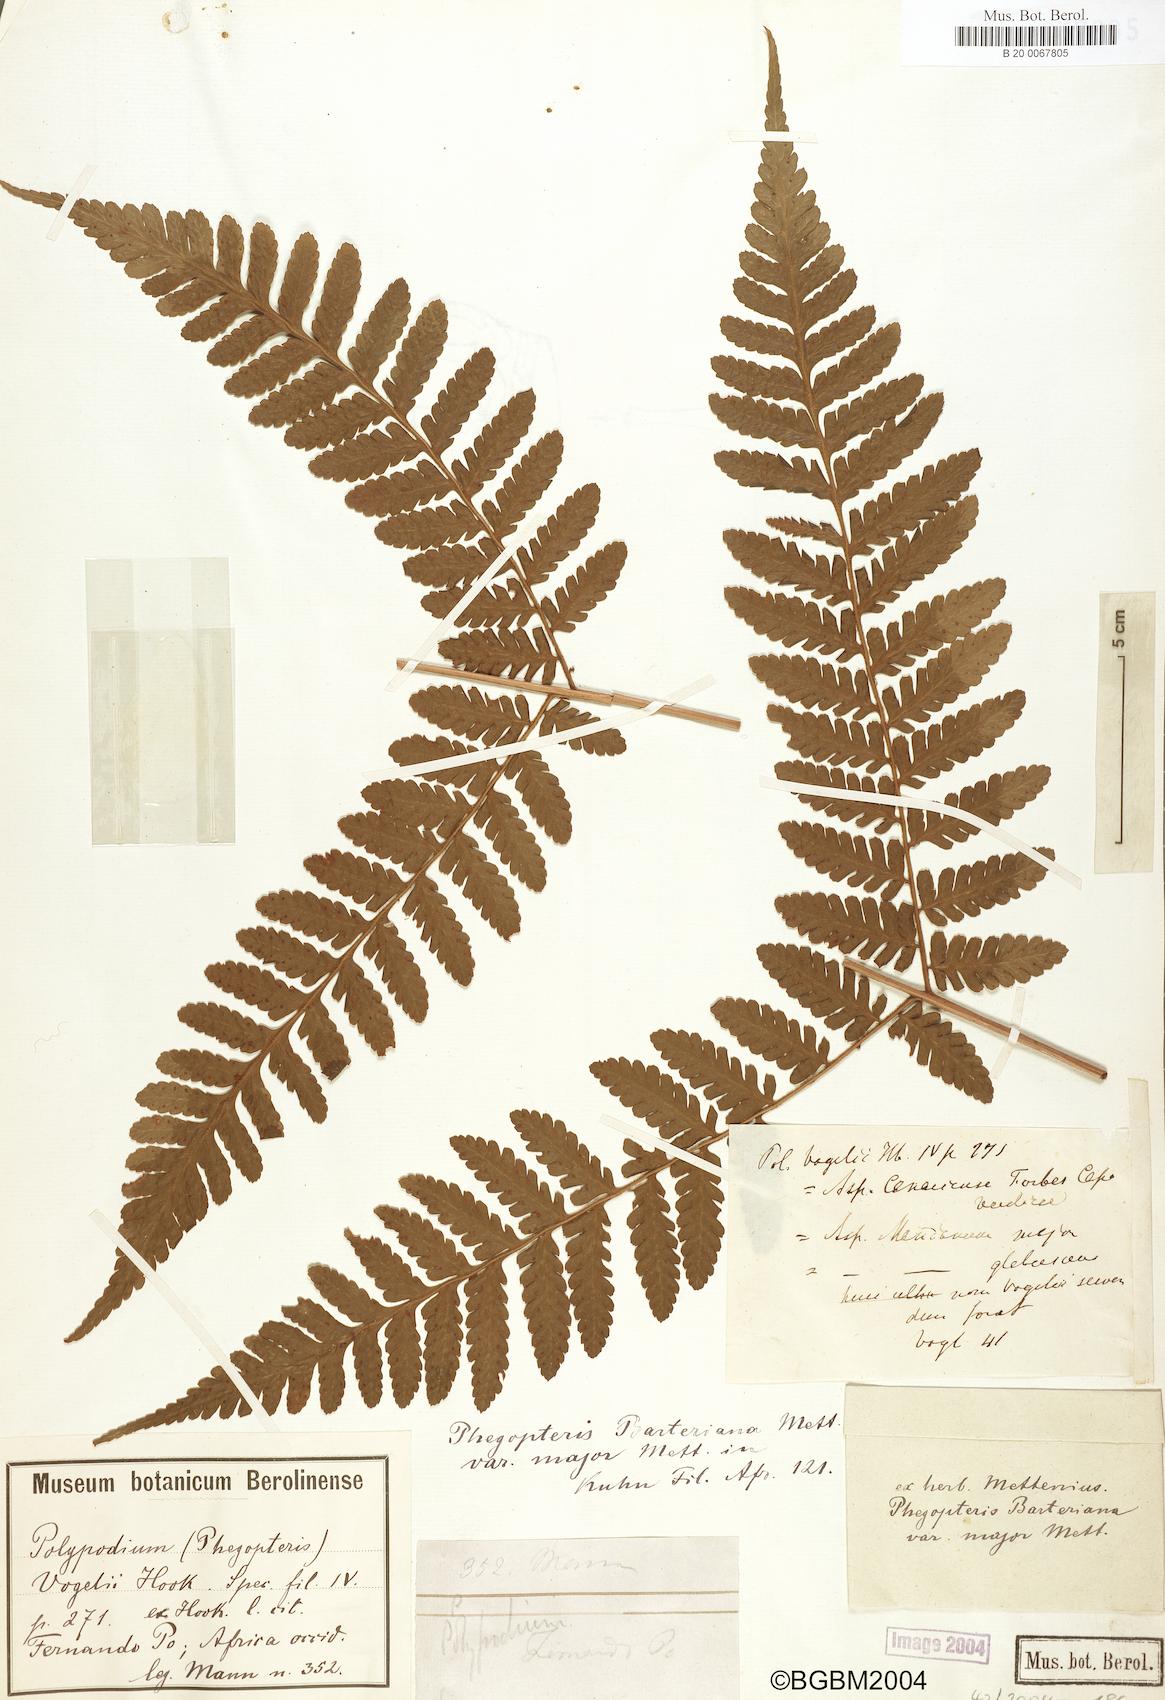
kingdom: Plantae
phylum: Tracheophyta
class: Polypodiopsida
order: Polypodiales
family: Dryopteridaceae
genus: Parapolystichum
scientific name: Parapolystichum barterianum
